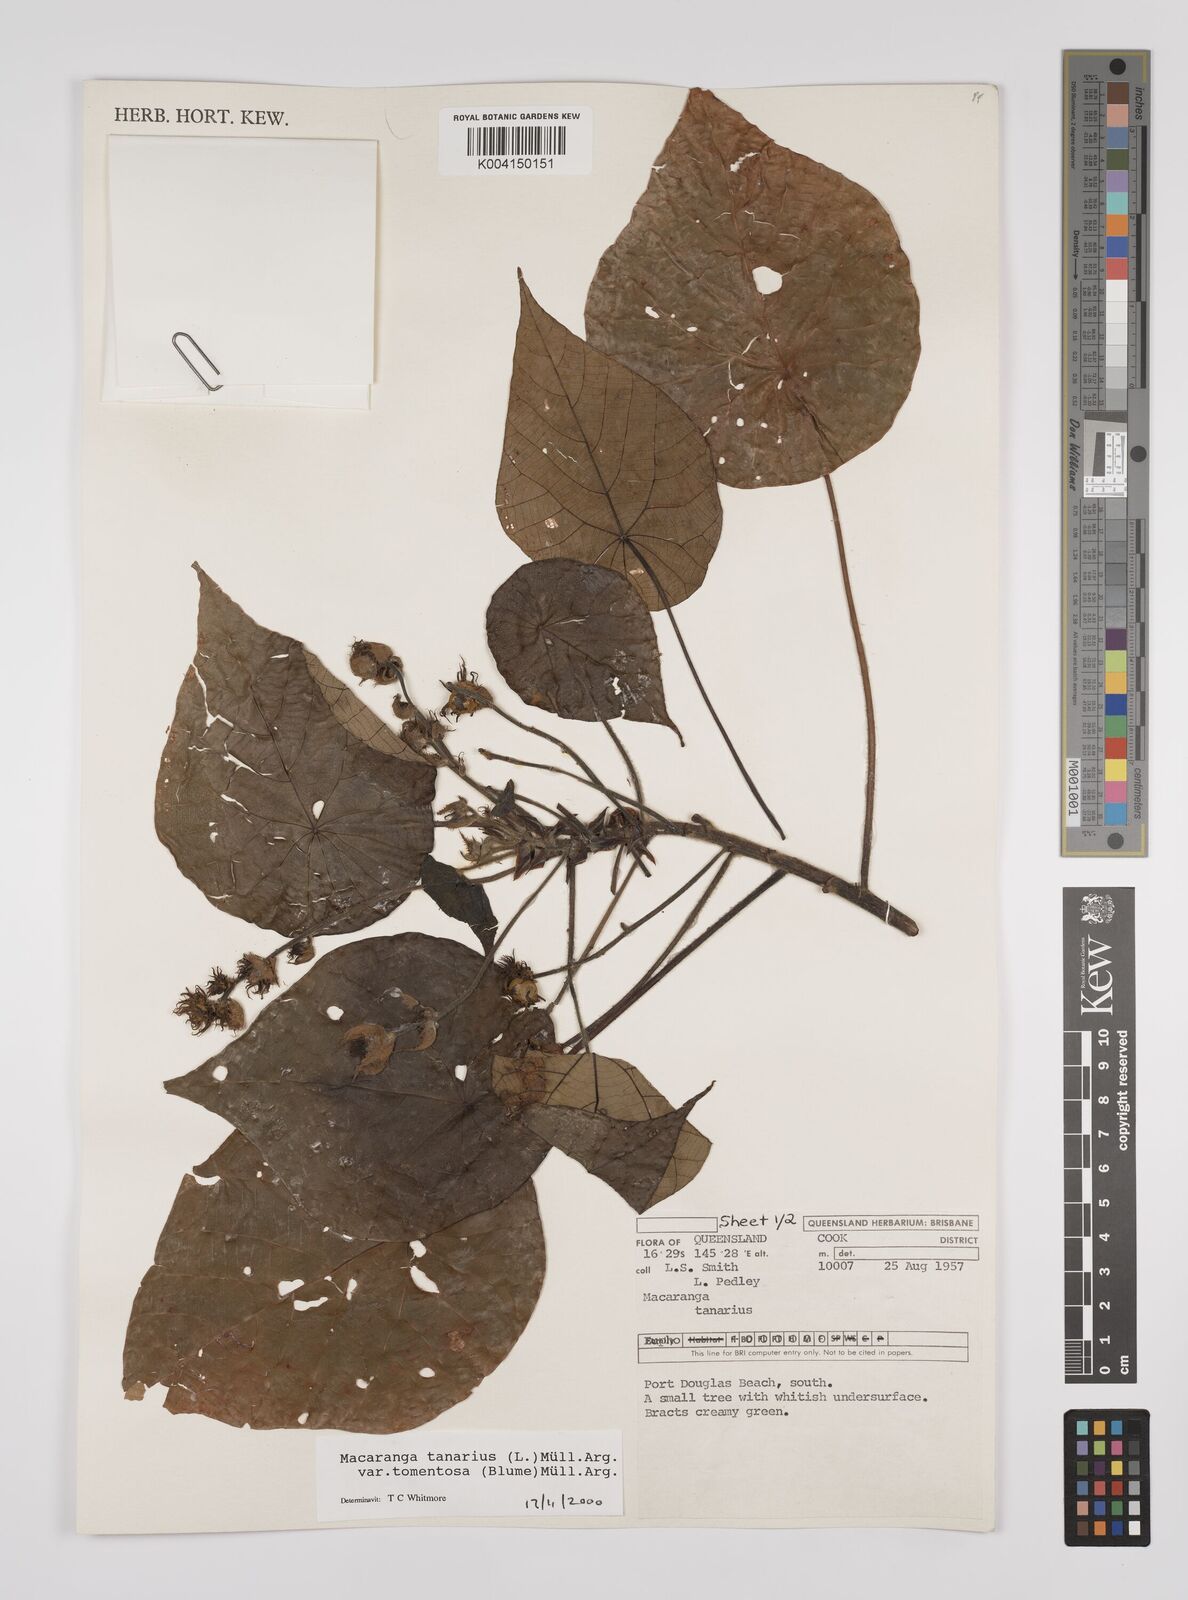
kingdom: Plantae
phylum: Tracheophyta
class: Magnoliopsida
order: Malpighiales
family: Euphorbiaceae
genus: Macaranga
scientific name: Macaranga tanarius
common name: Parasol leaf tree
